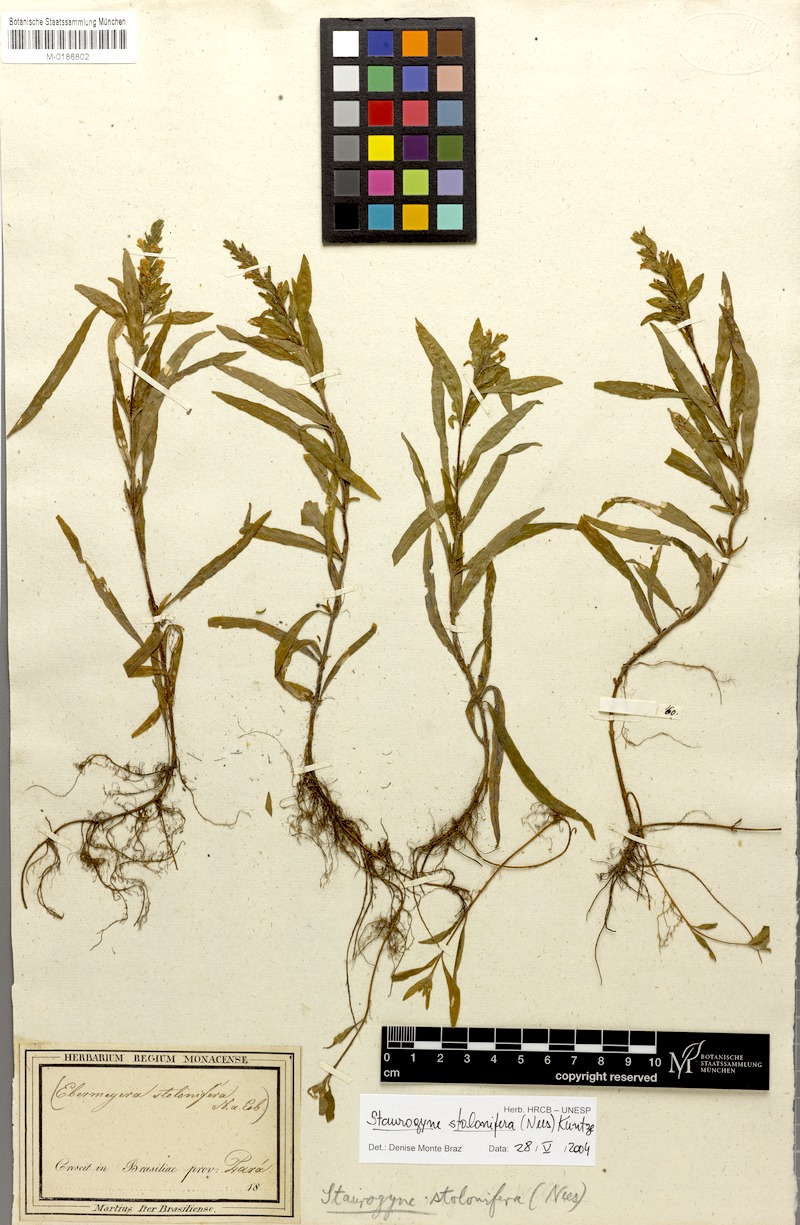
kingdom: Plantae
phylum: Tracheophyta
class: Magnoliopsida
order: Lamiales
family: Acanthaceae
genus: Staurogyne
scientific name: Staurogyne stolonifera
